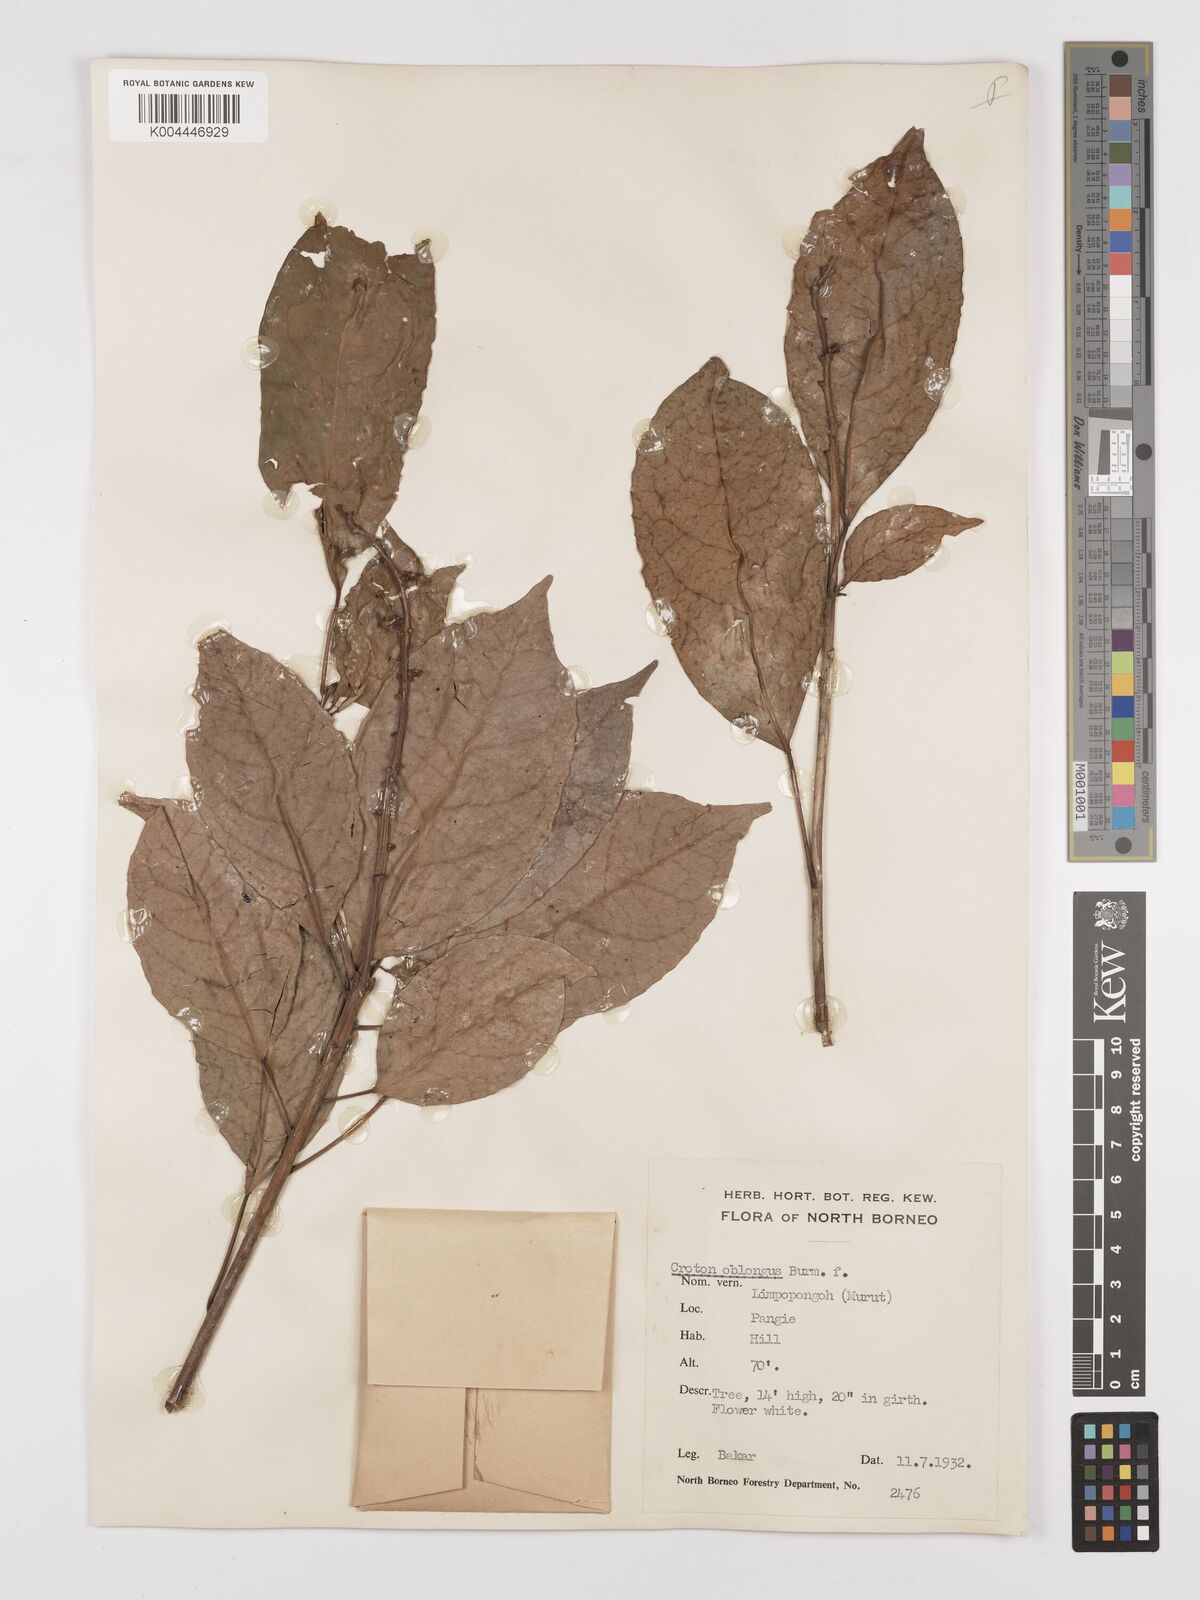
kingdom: Plantae
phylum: Tracheophyta
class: Magnoliopsida
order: Malpighiales
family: Euphorbiaceae
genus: Croton
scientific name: Croton oblongus
